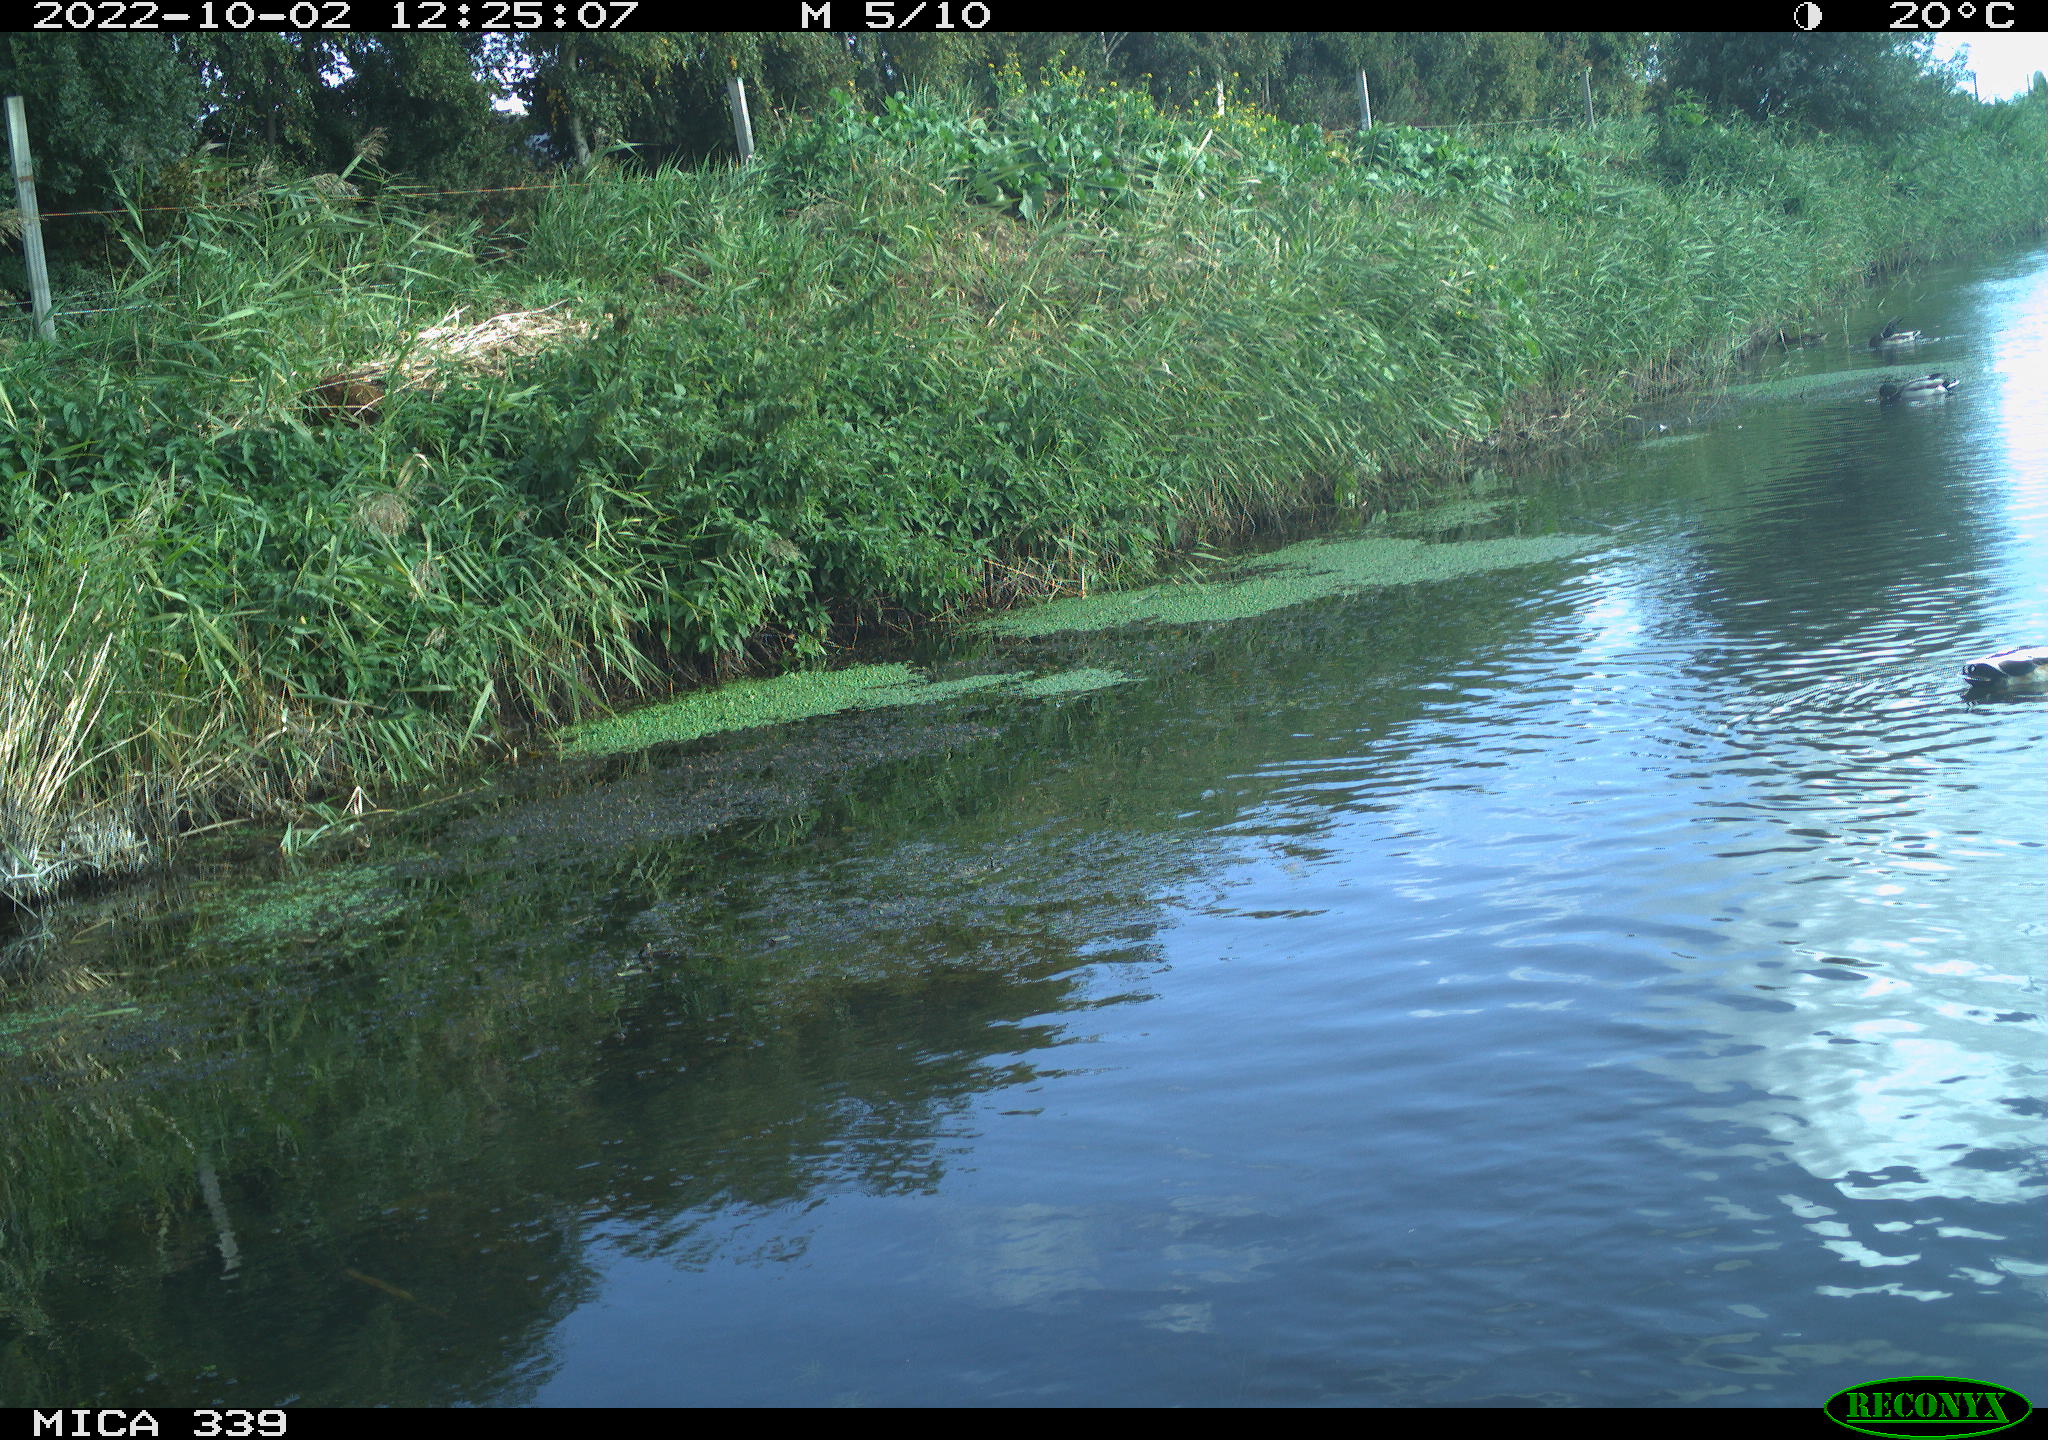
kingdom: Animalia
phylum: Chordata
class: Aves
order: Anseriformes
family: Anatidae
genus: Anas
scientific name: Anas platyrhynchos
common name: Mallard
